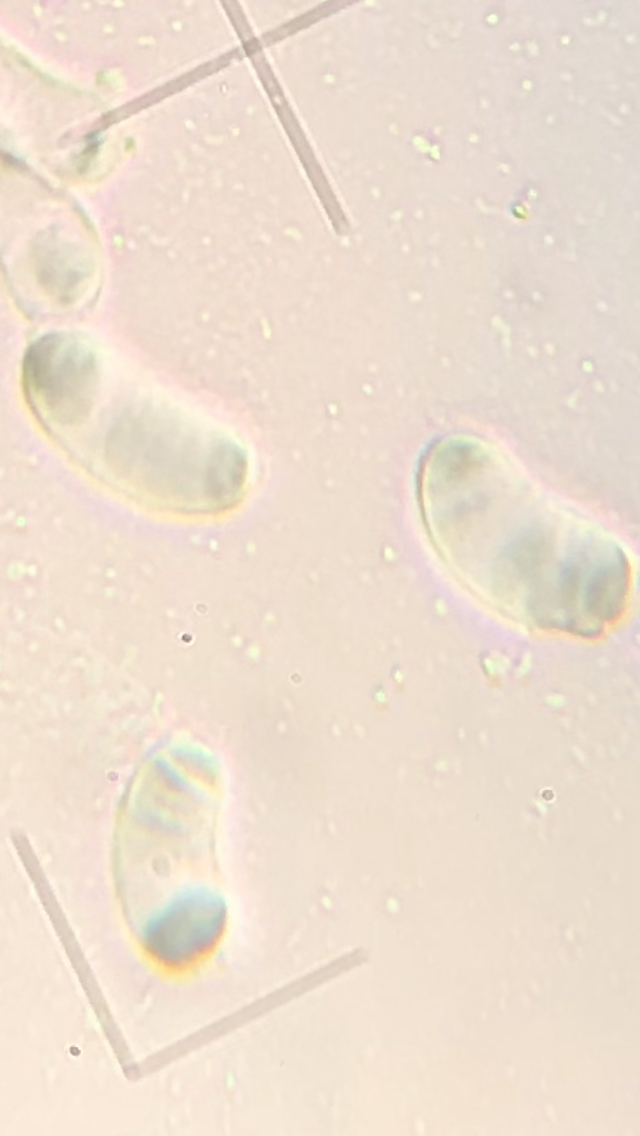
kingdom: Fungi
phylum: Basidiomycota
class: Agaricomycetes
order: Auriculariales
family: Auriculariaceae
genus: Exidia
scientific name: Exidia pithya
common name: gran-bævretop
